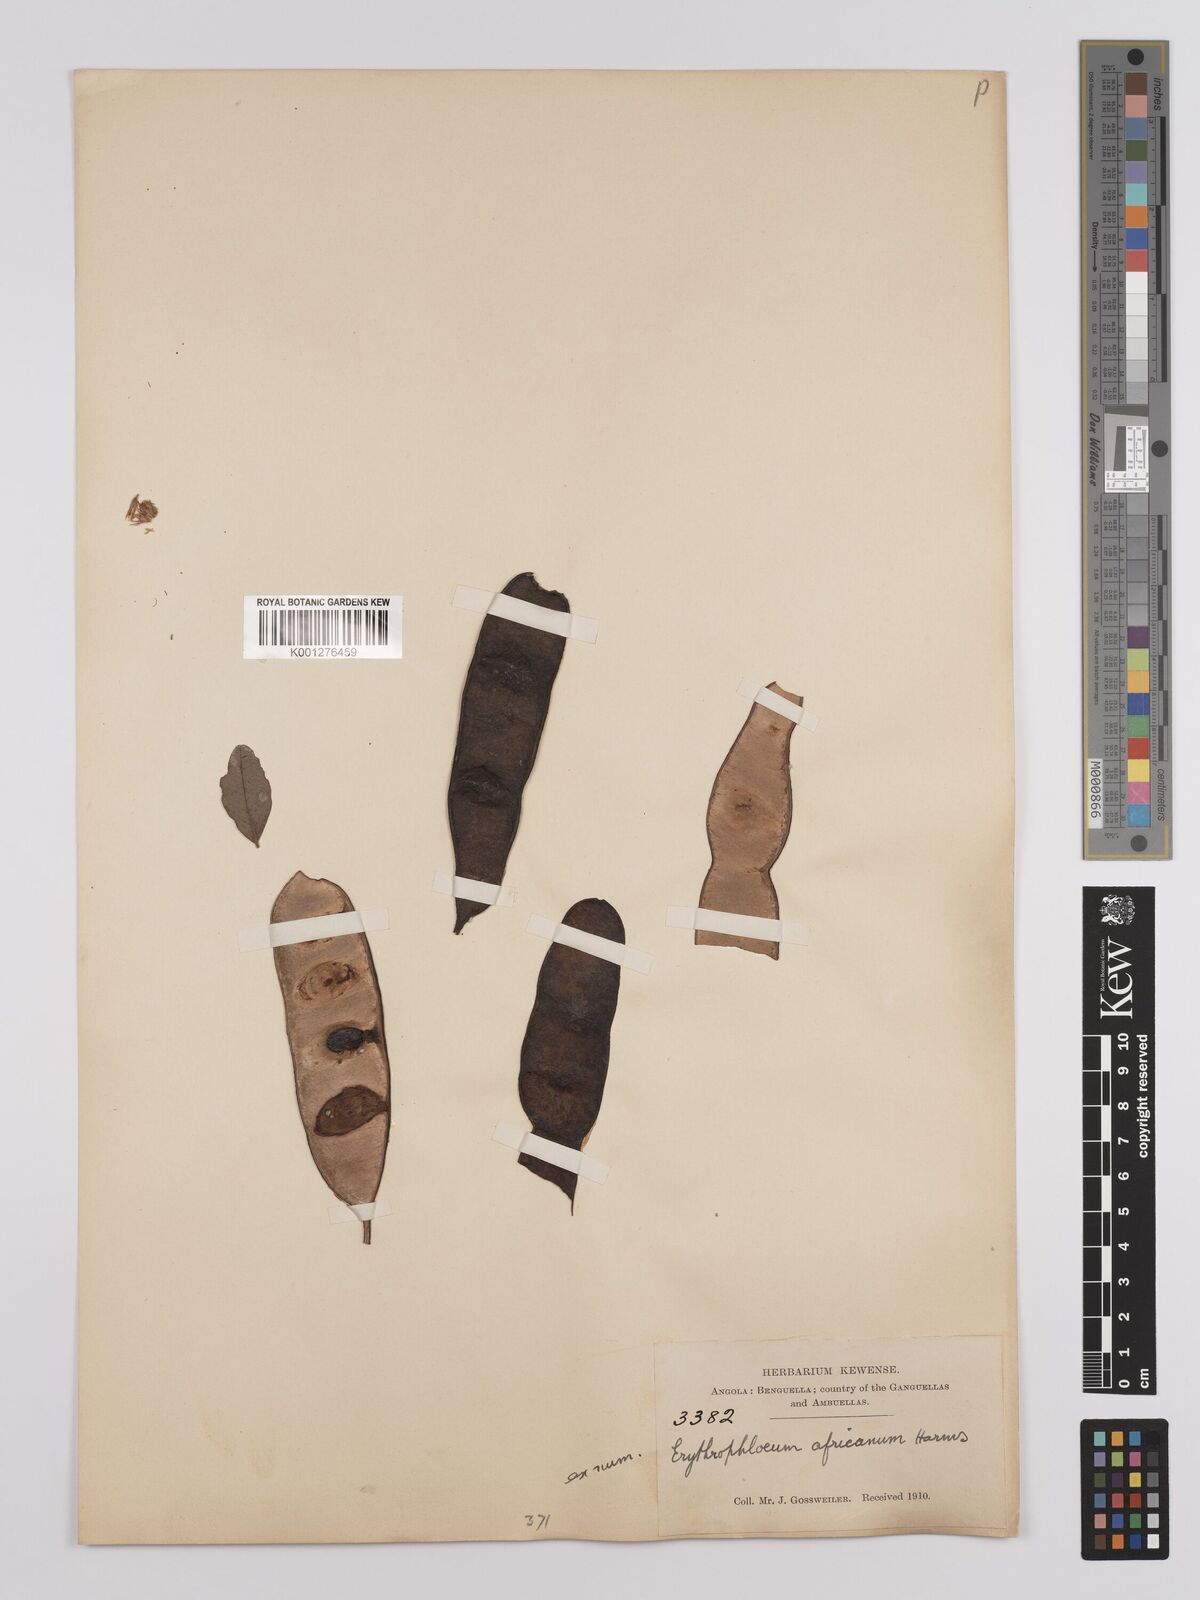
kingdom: Plantae
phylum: Tracheophyta
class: Magnoliopsida
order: Fabales
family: Fabaceae
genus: Erythrophleum
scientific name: Erythrophleum africanum
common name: African blackwood
